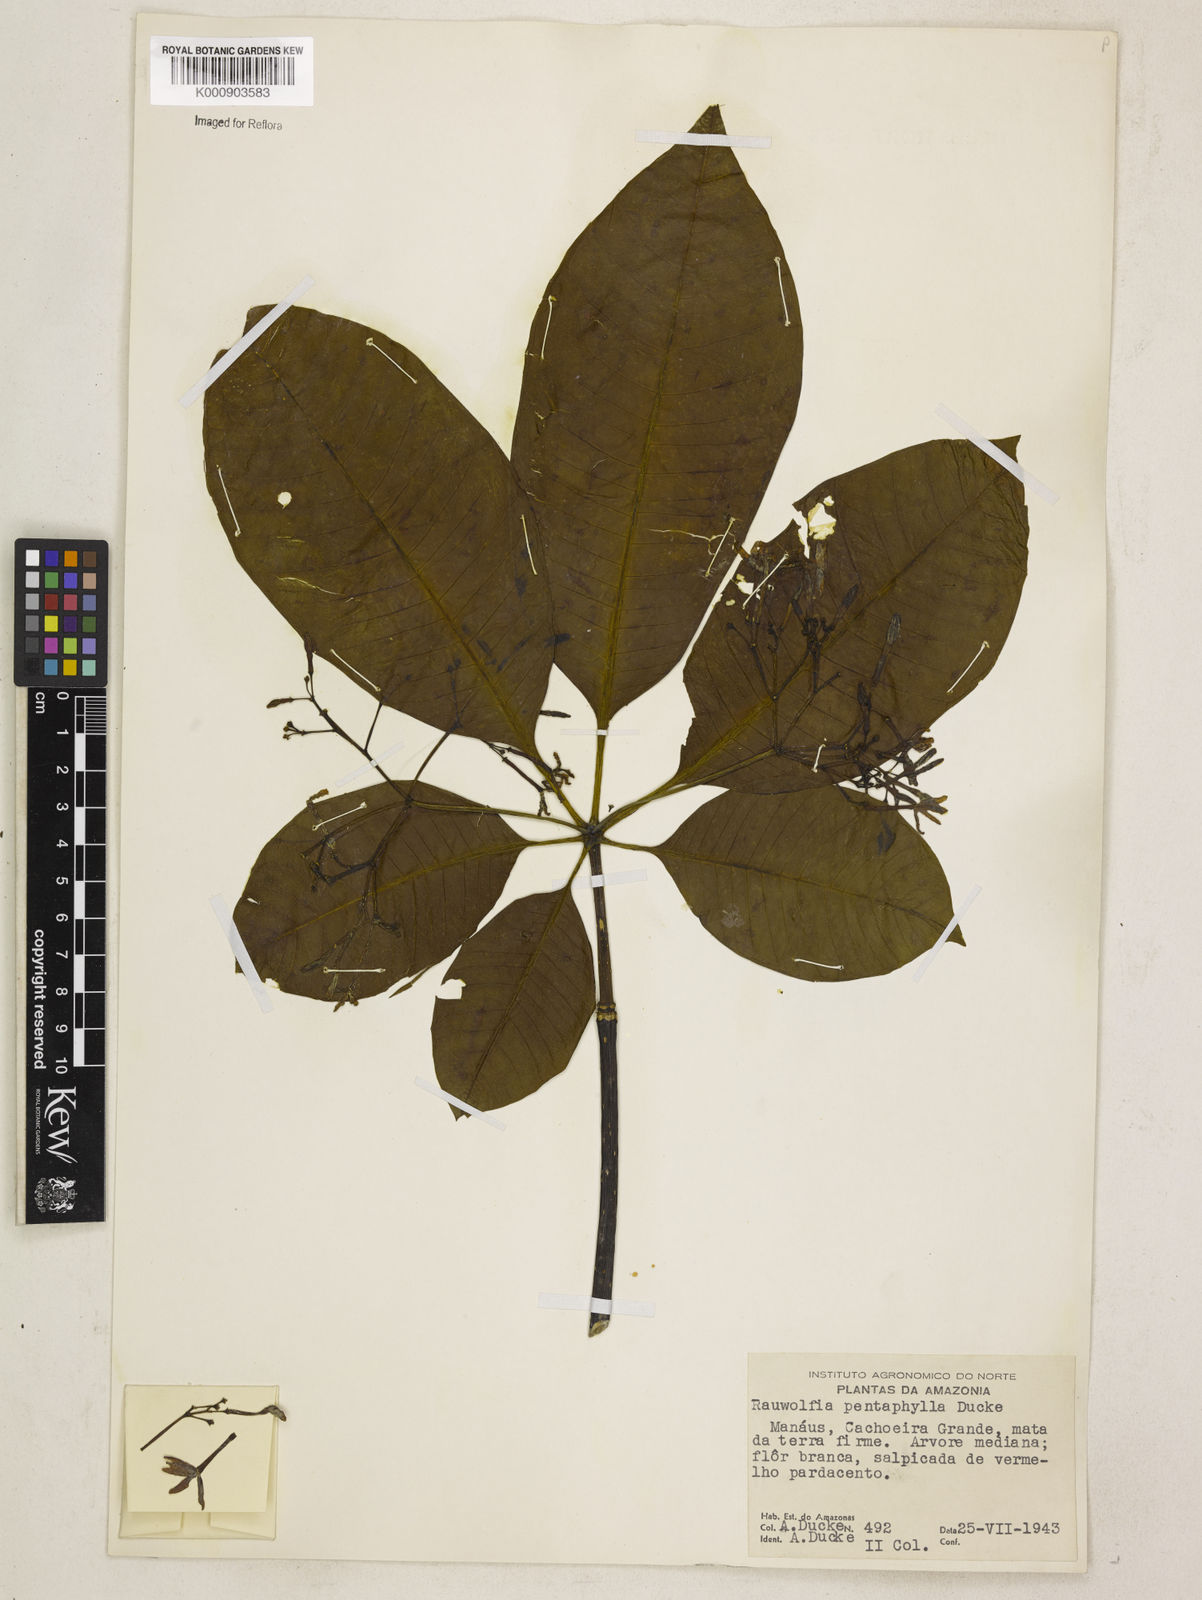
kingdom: Plantae
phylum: Tracheophyta
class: Magnoliopsida
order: Gentianales
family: Apocynaceae
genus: Rauvolfia
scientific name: Rauvolfia pentaphylla
